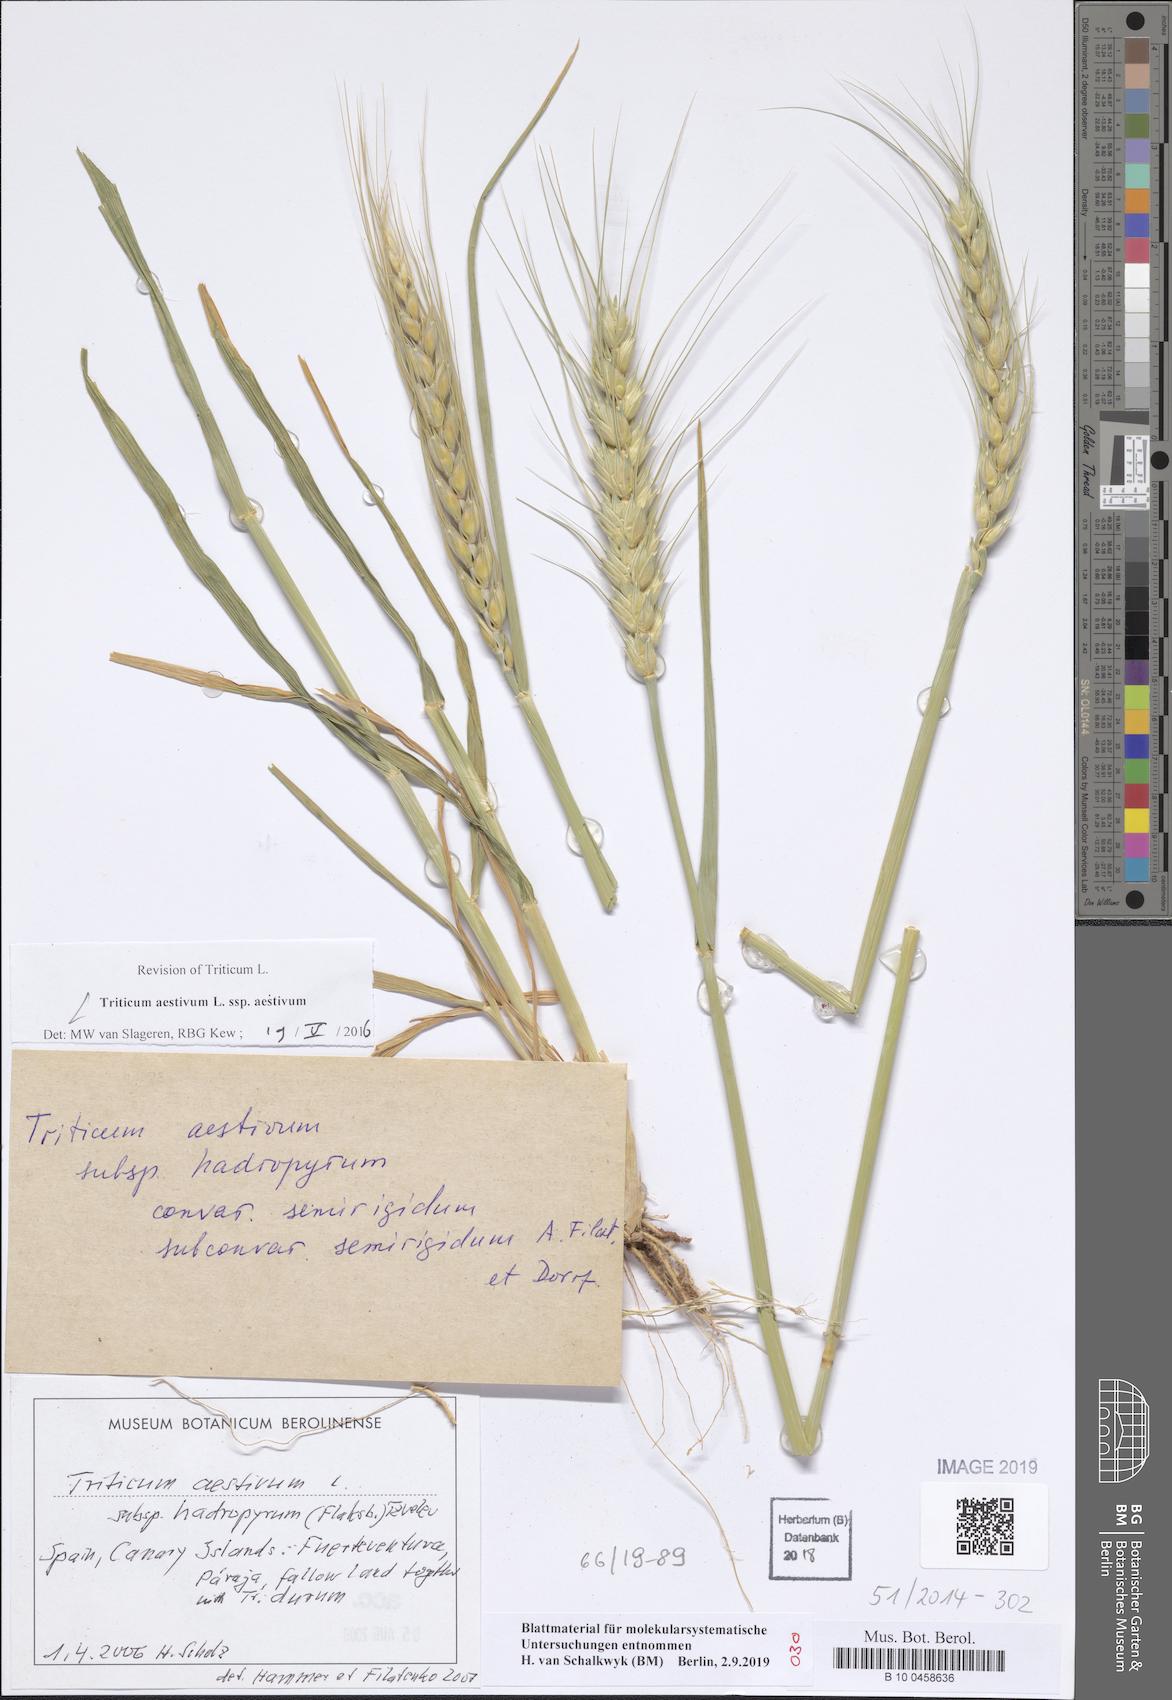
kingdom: Plantae
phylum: Tracheophyta
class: Liliopsida
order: Poales
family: Poaceae
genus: Triticum
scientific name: Triticum aestivum
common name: Common wheat
